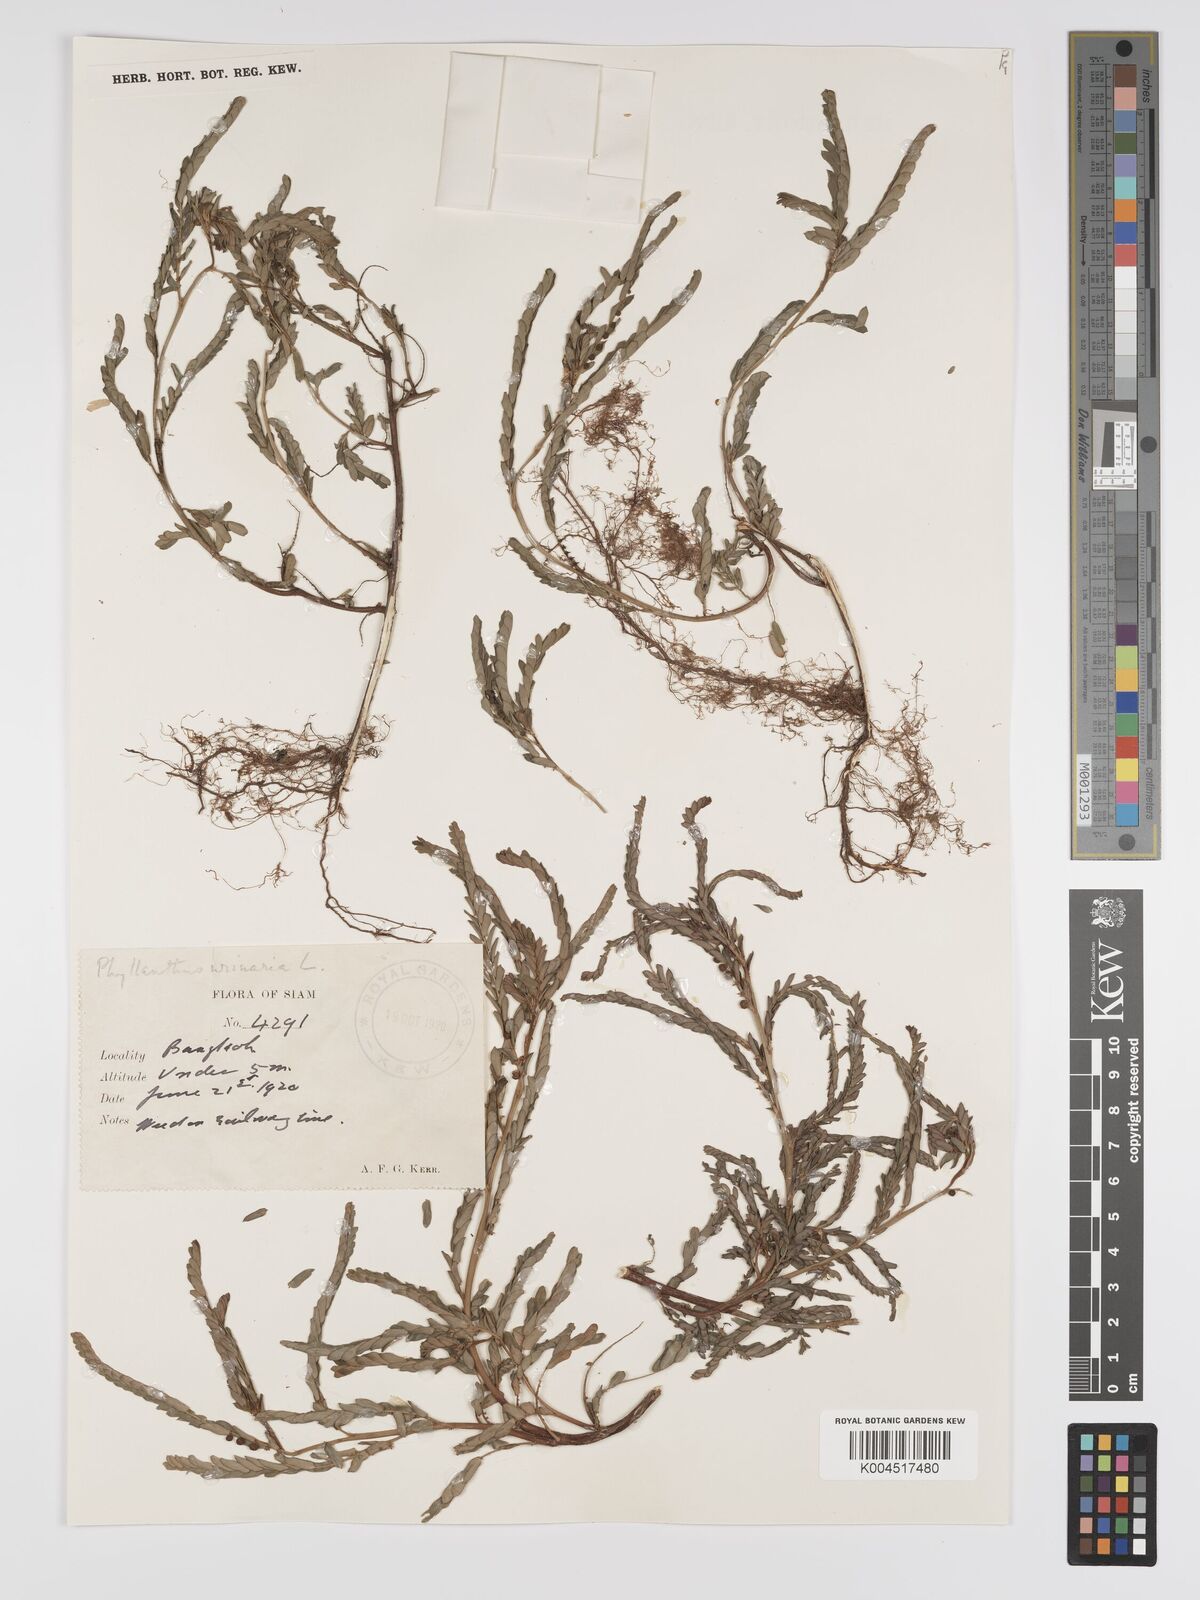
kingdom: Plantae
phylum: Tracheophyta
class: Magnoliopsida
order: Malpighiales
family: Phyllanthaceae
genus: Phyllanthus
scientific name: Phyllanthus urinaria
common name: Chamber bitter
